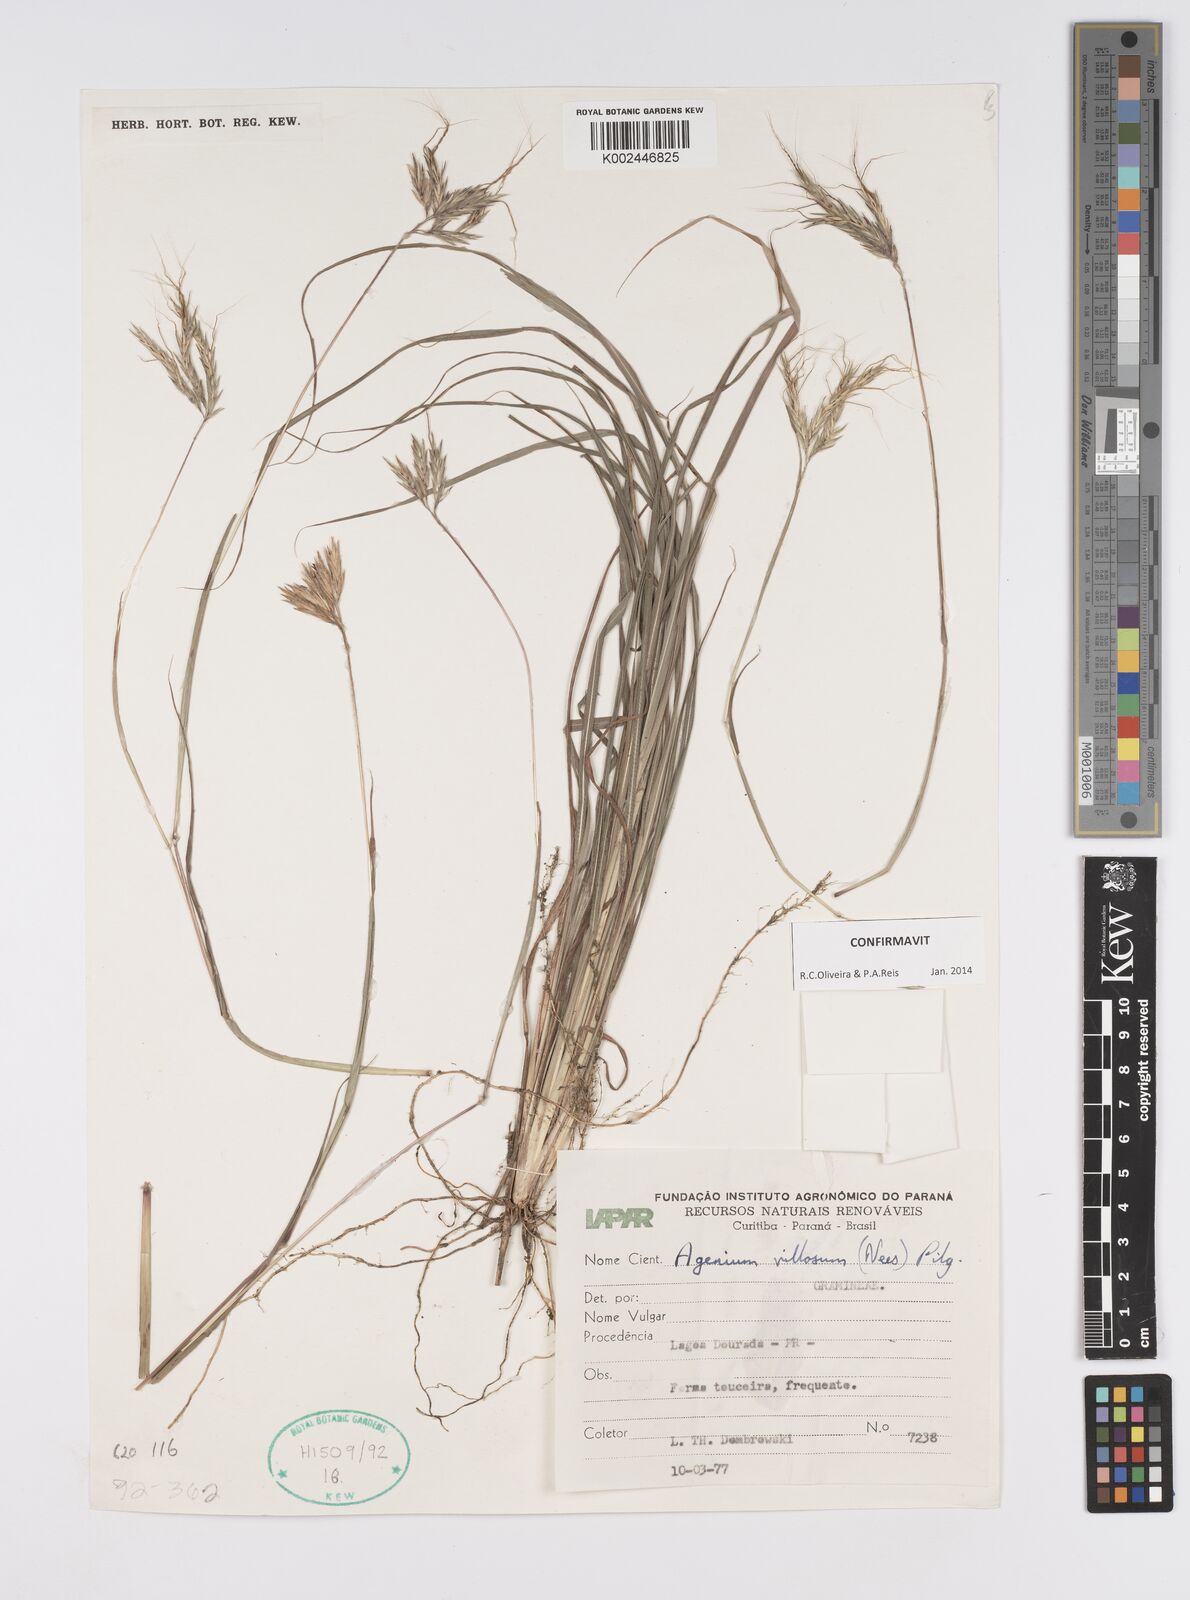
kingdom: Plantae
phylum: Tracheophyta
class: Liliopsida
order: Poales
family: Poaceae
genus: Agenium
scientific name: Agenium villosum
